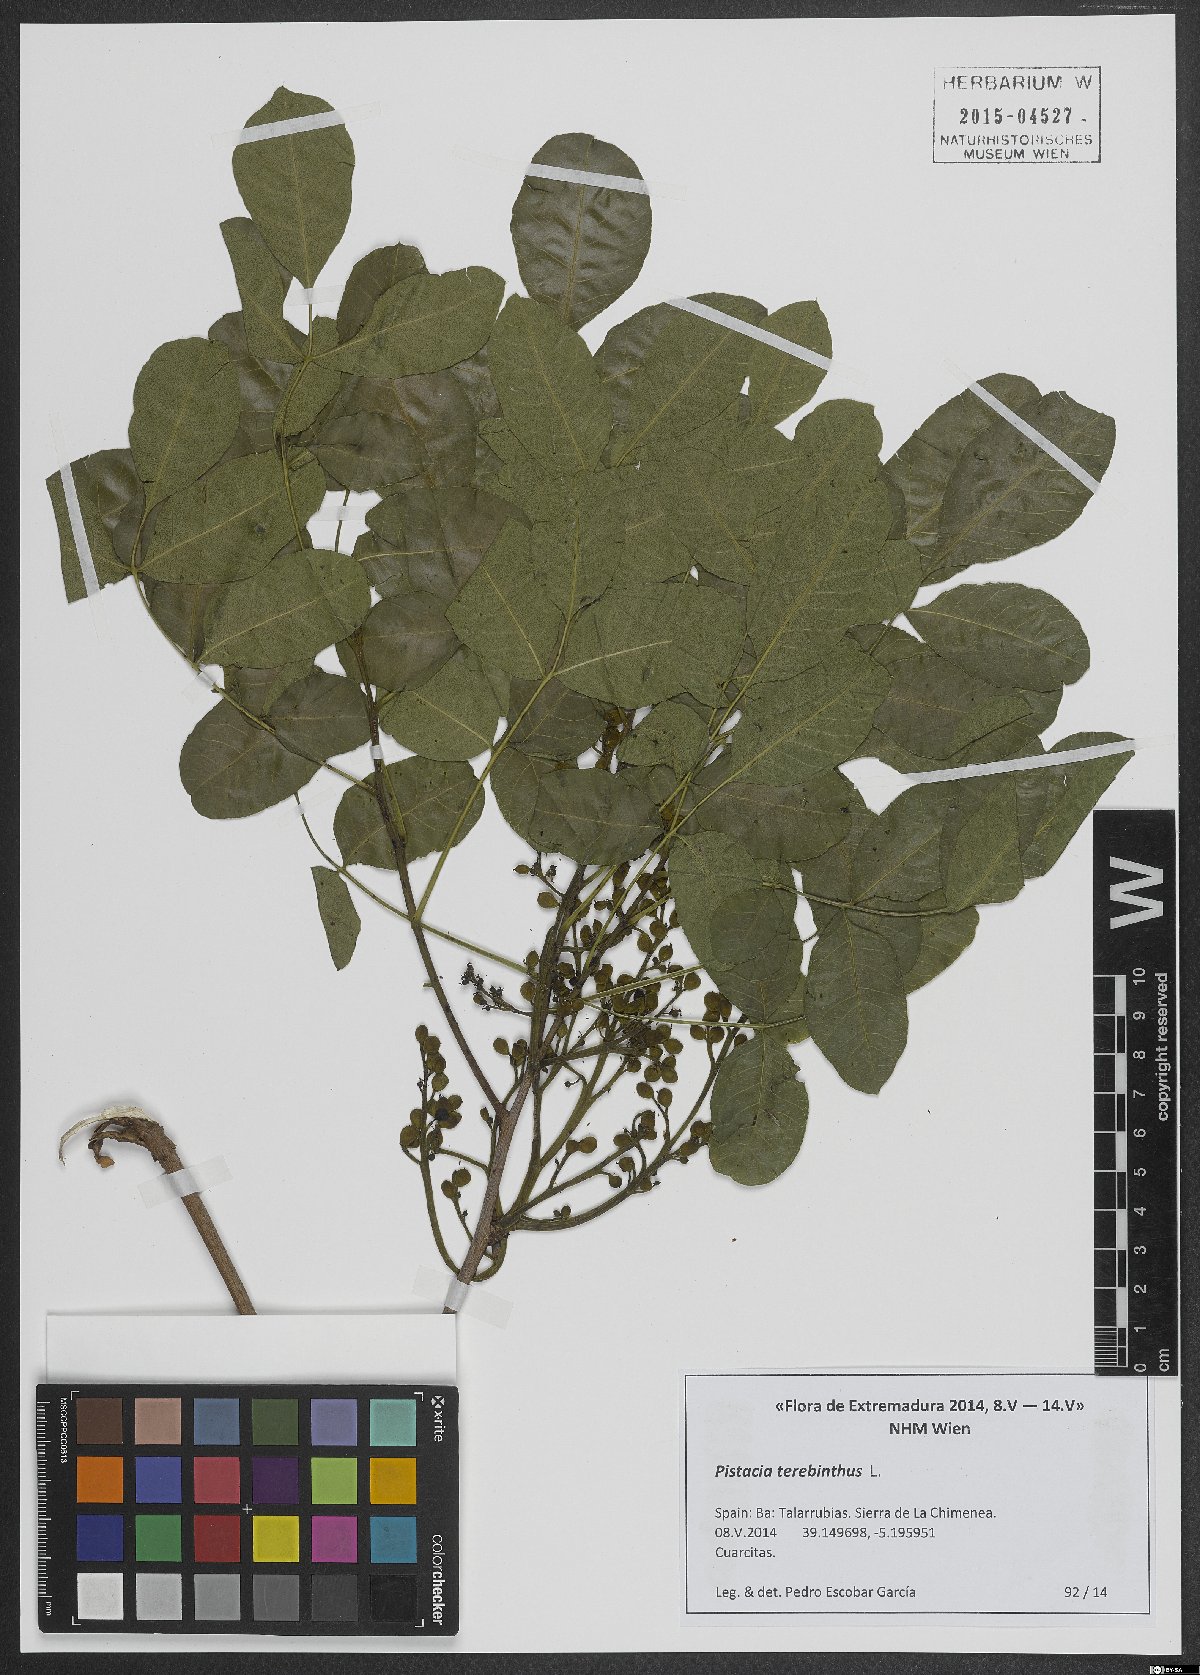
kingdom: Plantae
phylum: Tracheophyta
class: Magnoliopsida
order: Sapindales
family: Anacardiaceae
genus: Pistacia
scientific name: Pistacia terebinthus
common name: Terebinth
